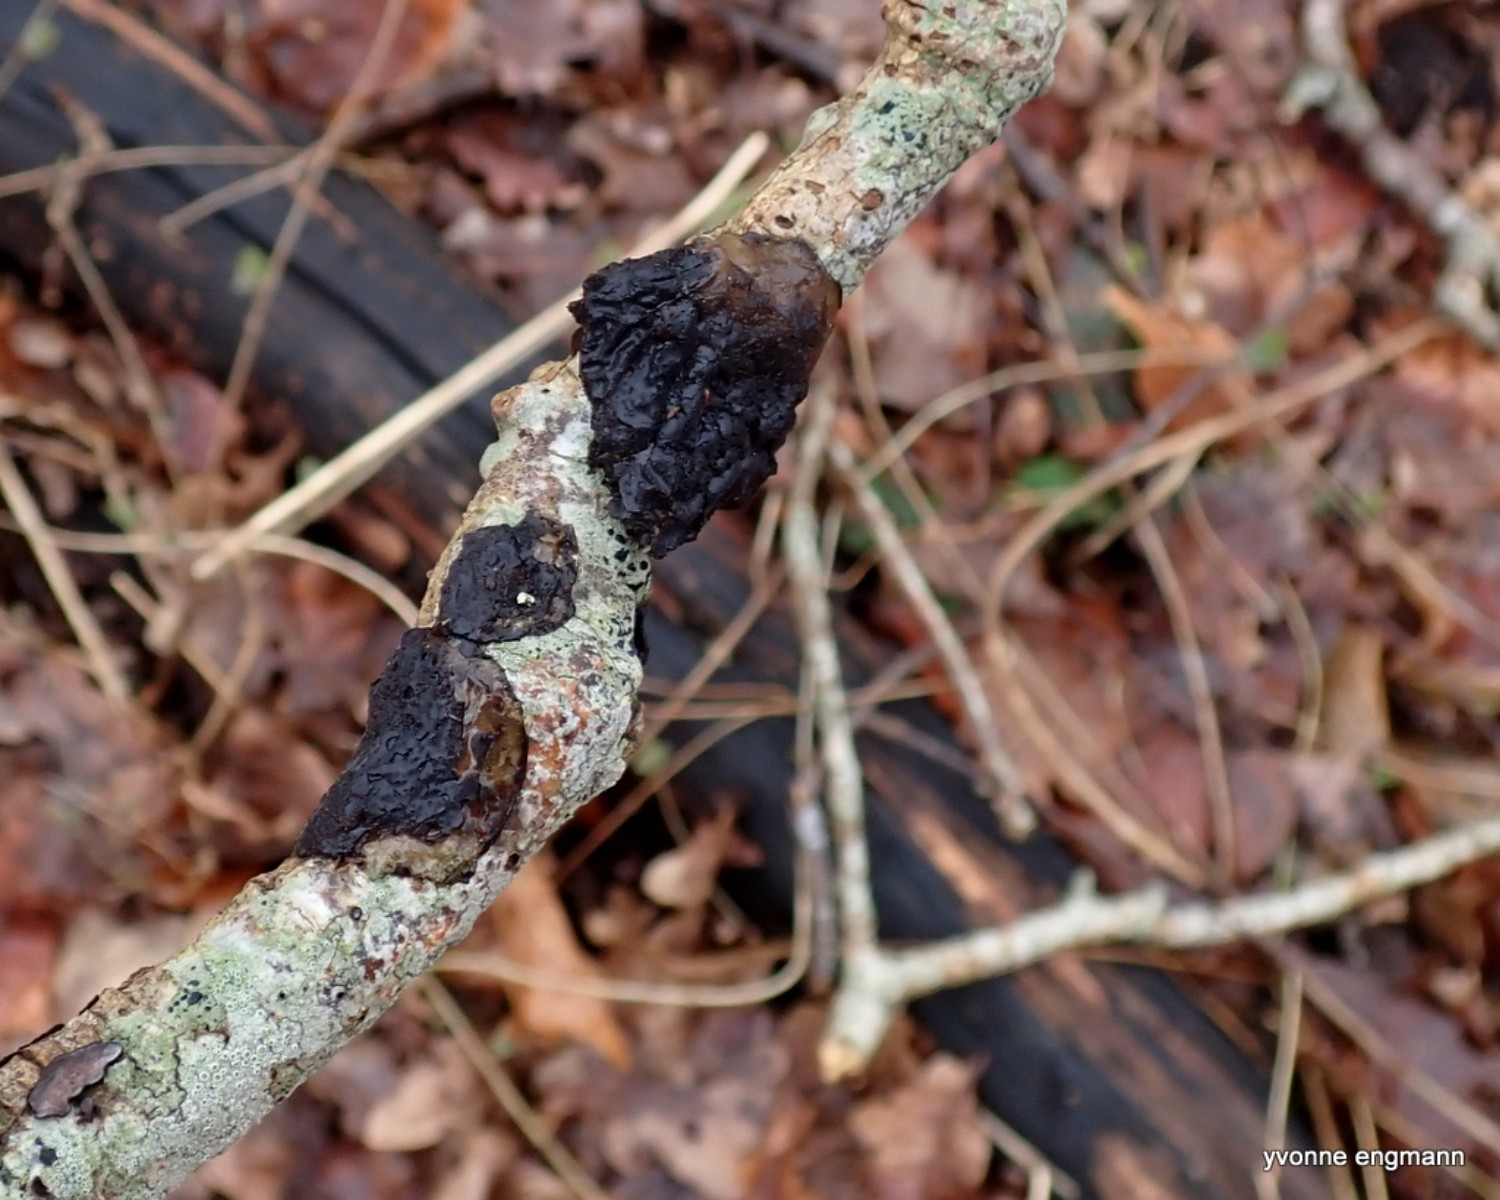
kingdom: Fungi
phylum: Basidiomycota
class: Agaricomycetes
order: Auriculariales
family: Auriculariaceae
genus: Exidia
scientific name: Exidia nigricans
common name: almindelig bævretop
